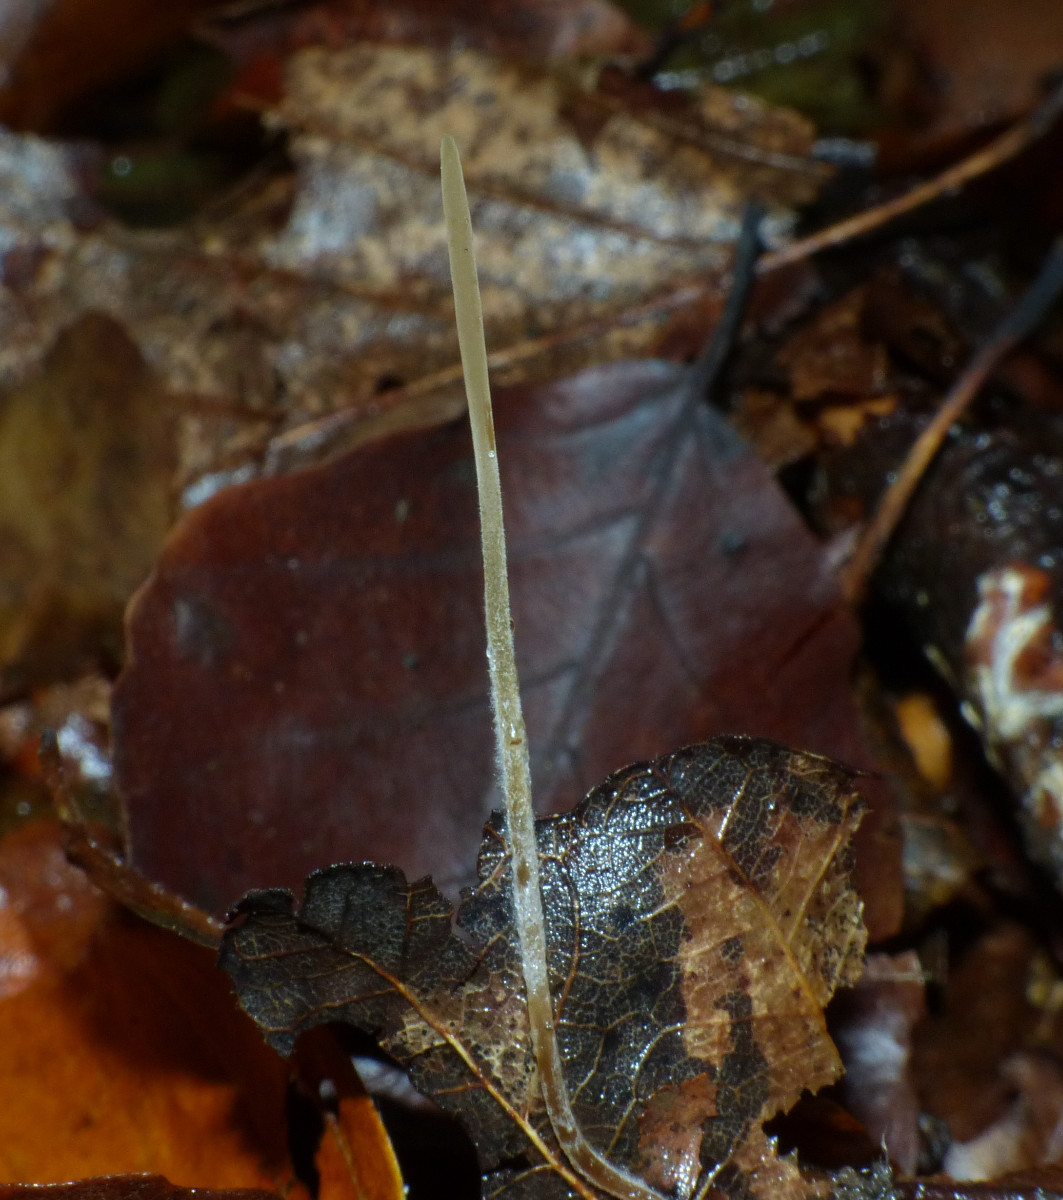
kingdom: Fungi
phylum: Basidiomycota
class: Agaricomycetes
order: Agaricales
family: Typhulaceae
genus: Typhula
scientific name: Typhula juncea
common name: trådagtig rørkølle
